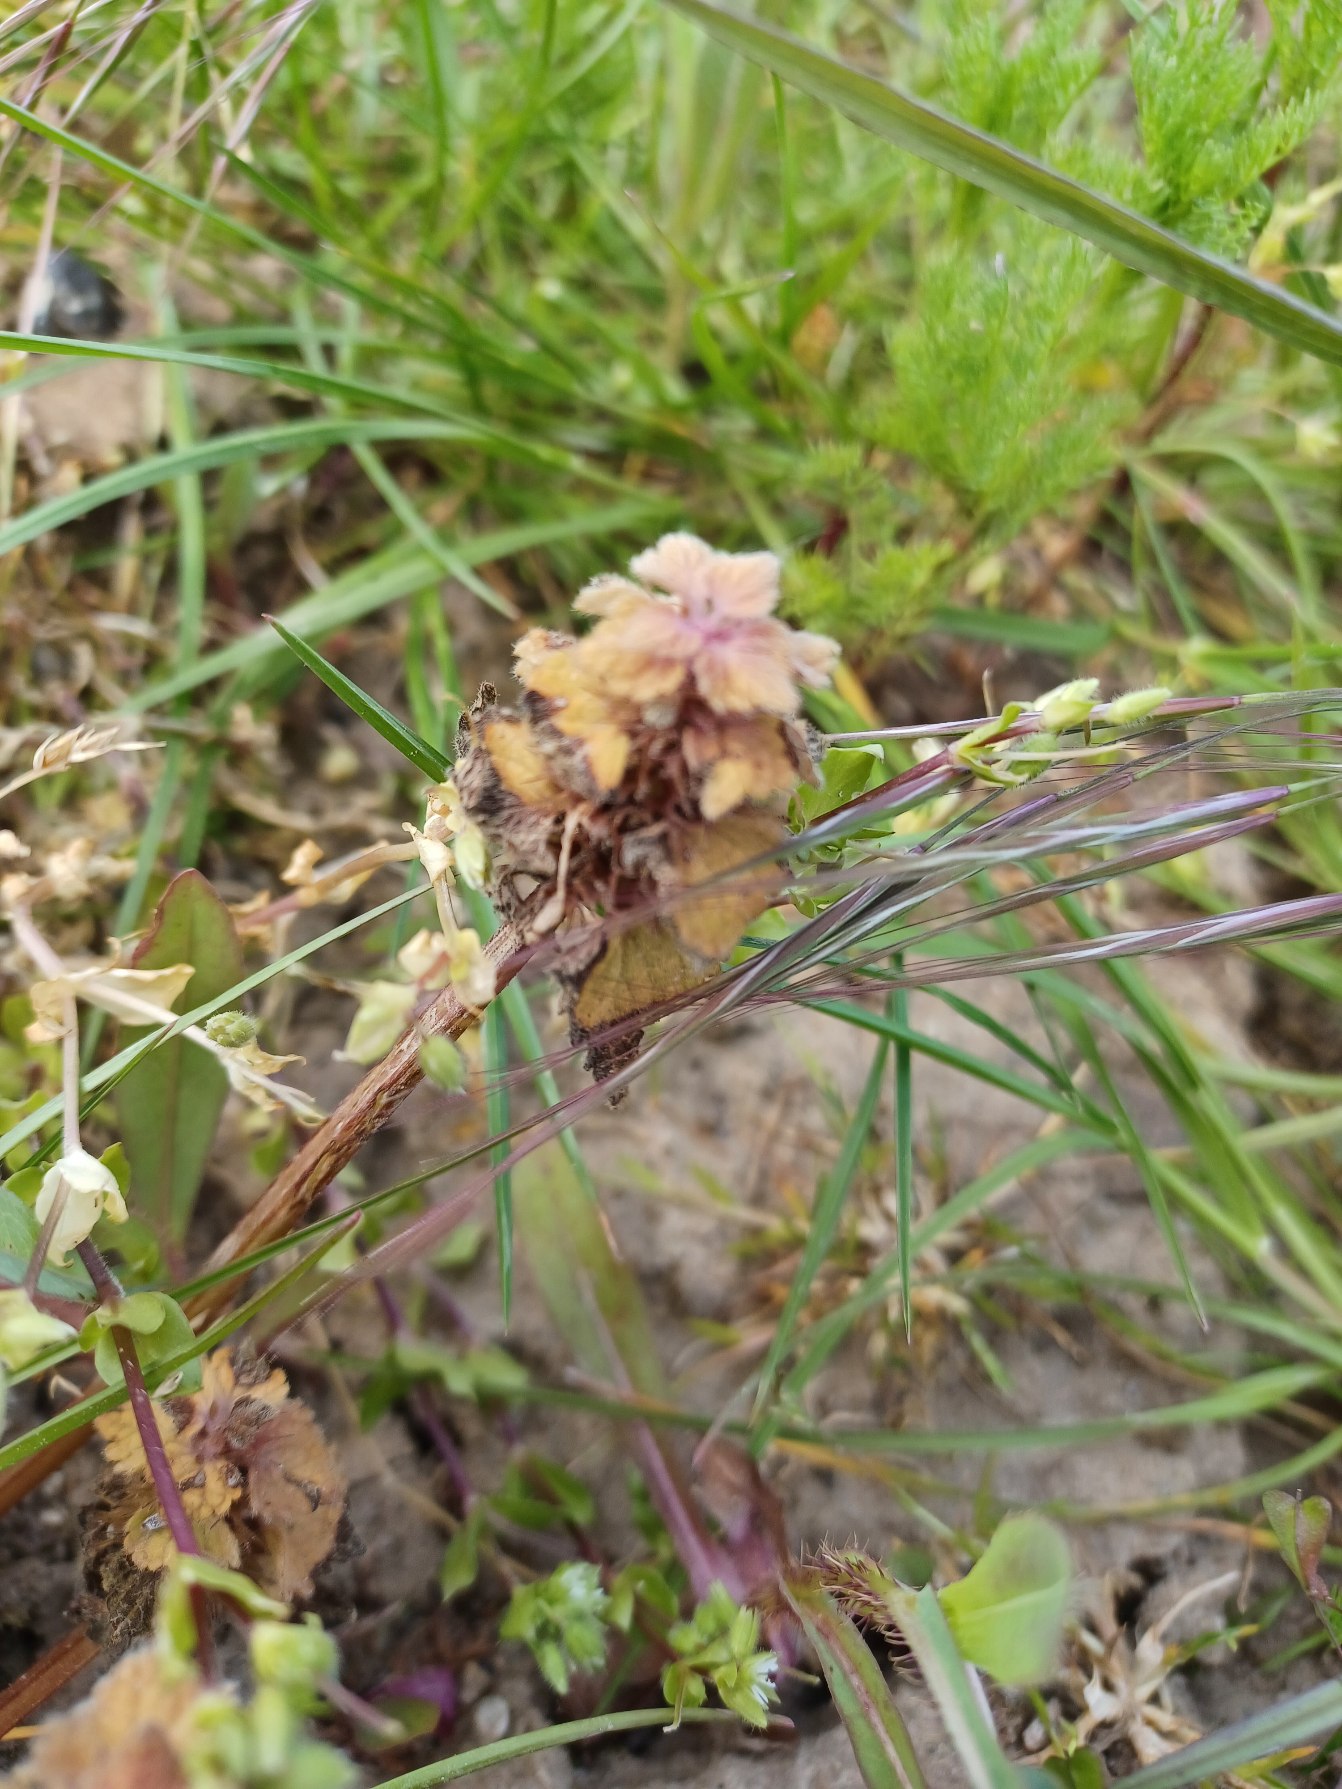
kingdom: Plantae
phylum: Tracheophyta
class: Magnoliopsida
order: Lamiales
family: Lamiaceae
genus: Lamium
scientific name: Lamium purpureum
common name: Rød tvetand
